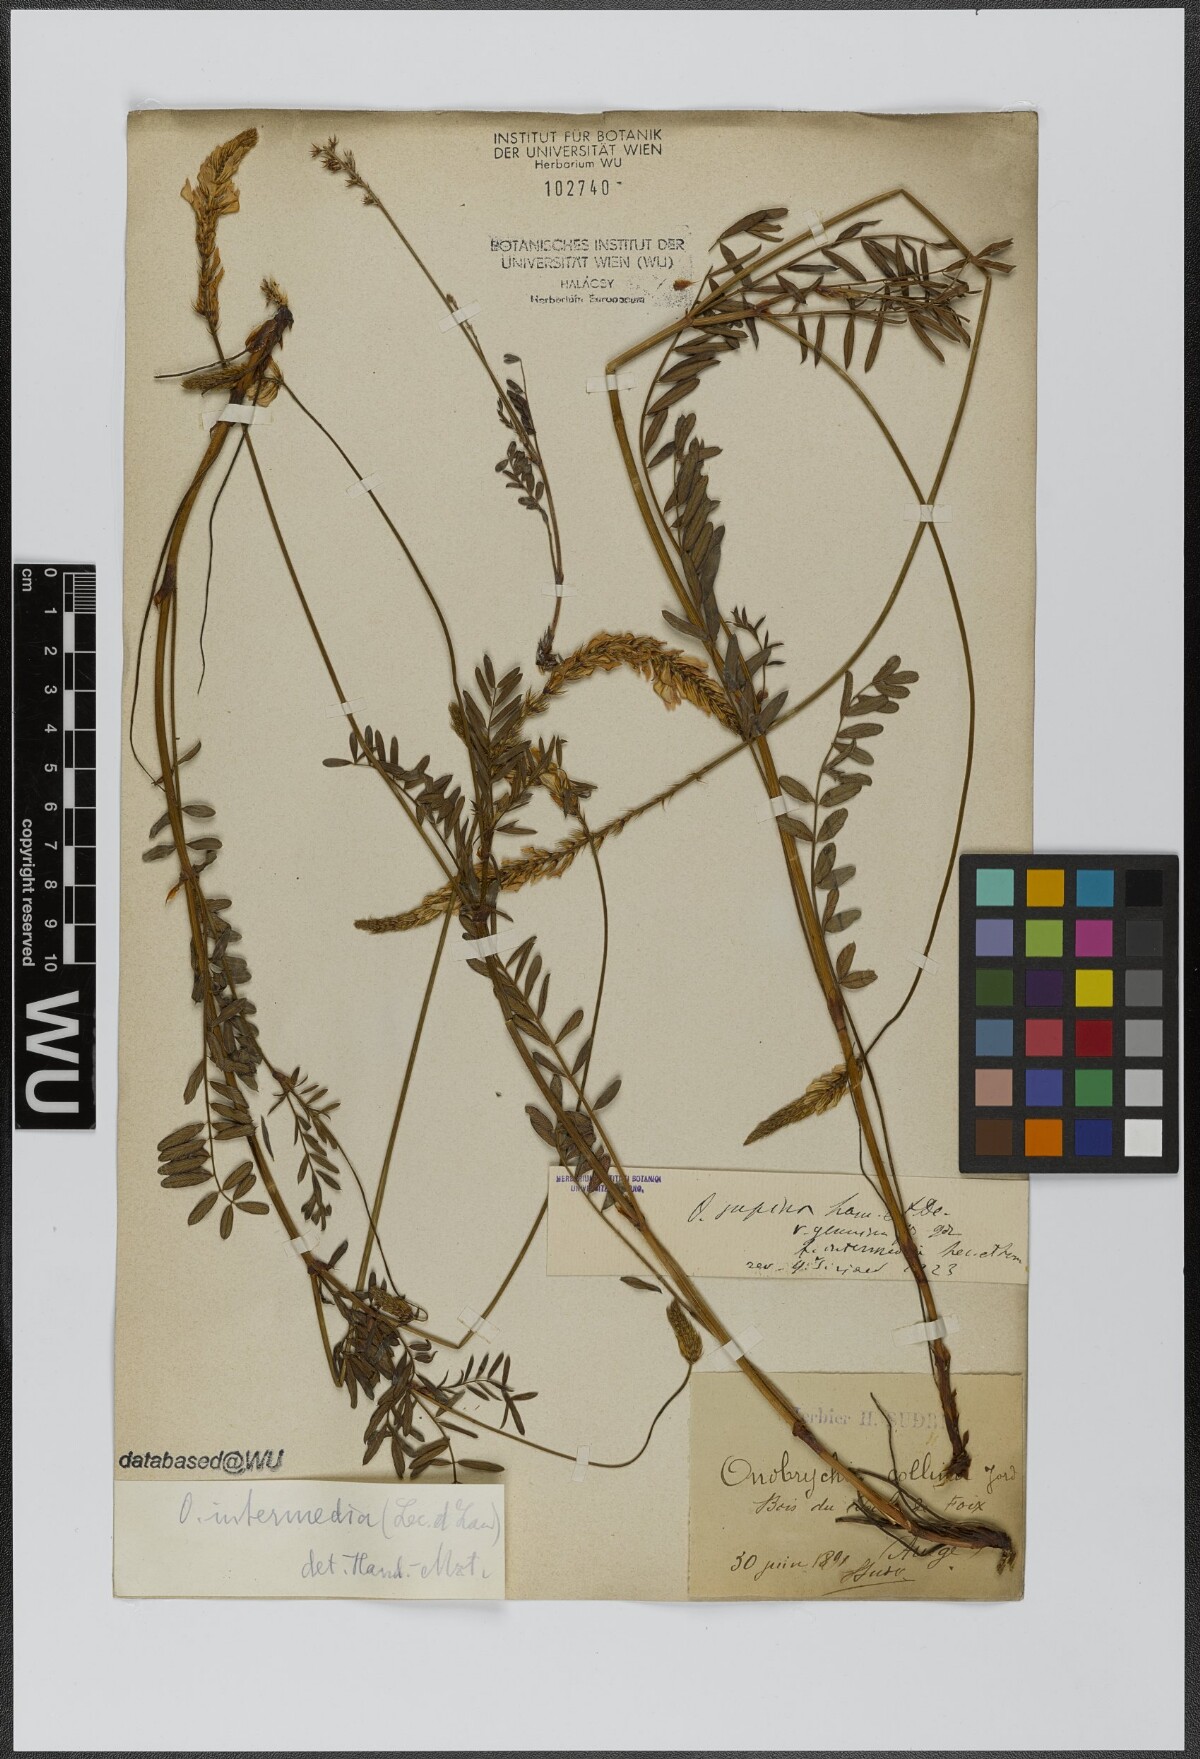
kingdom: Plantae
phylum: Tracheophyta
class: Magnoliopsida
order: Fabales
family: Fabaceae
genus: Onobrychis
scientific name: Onobrychis supina
